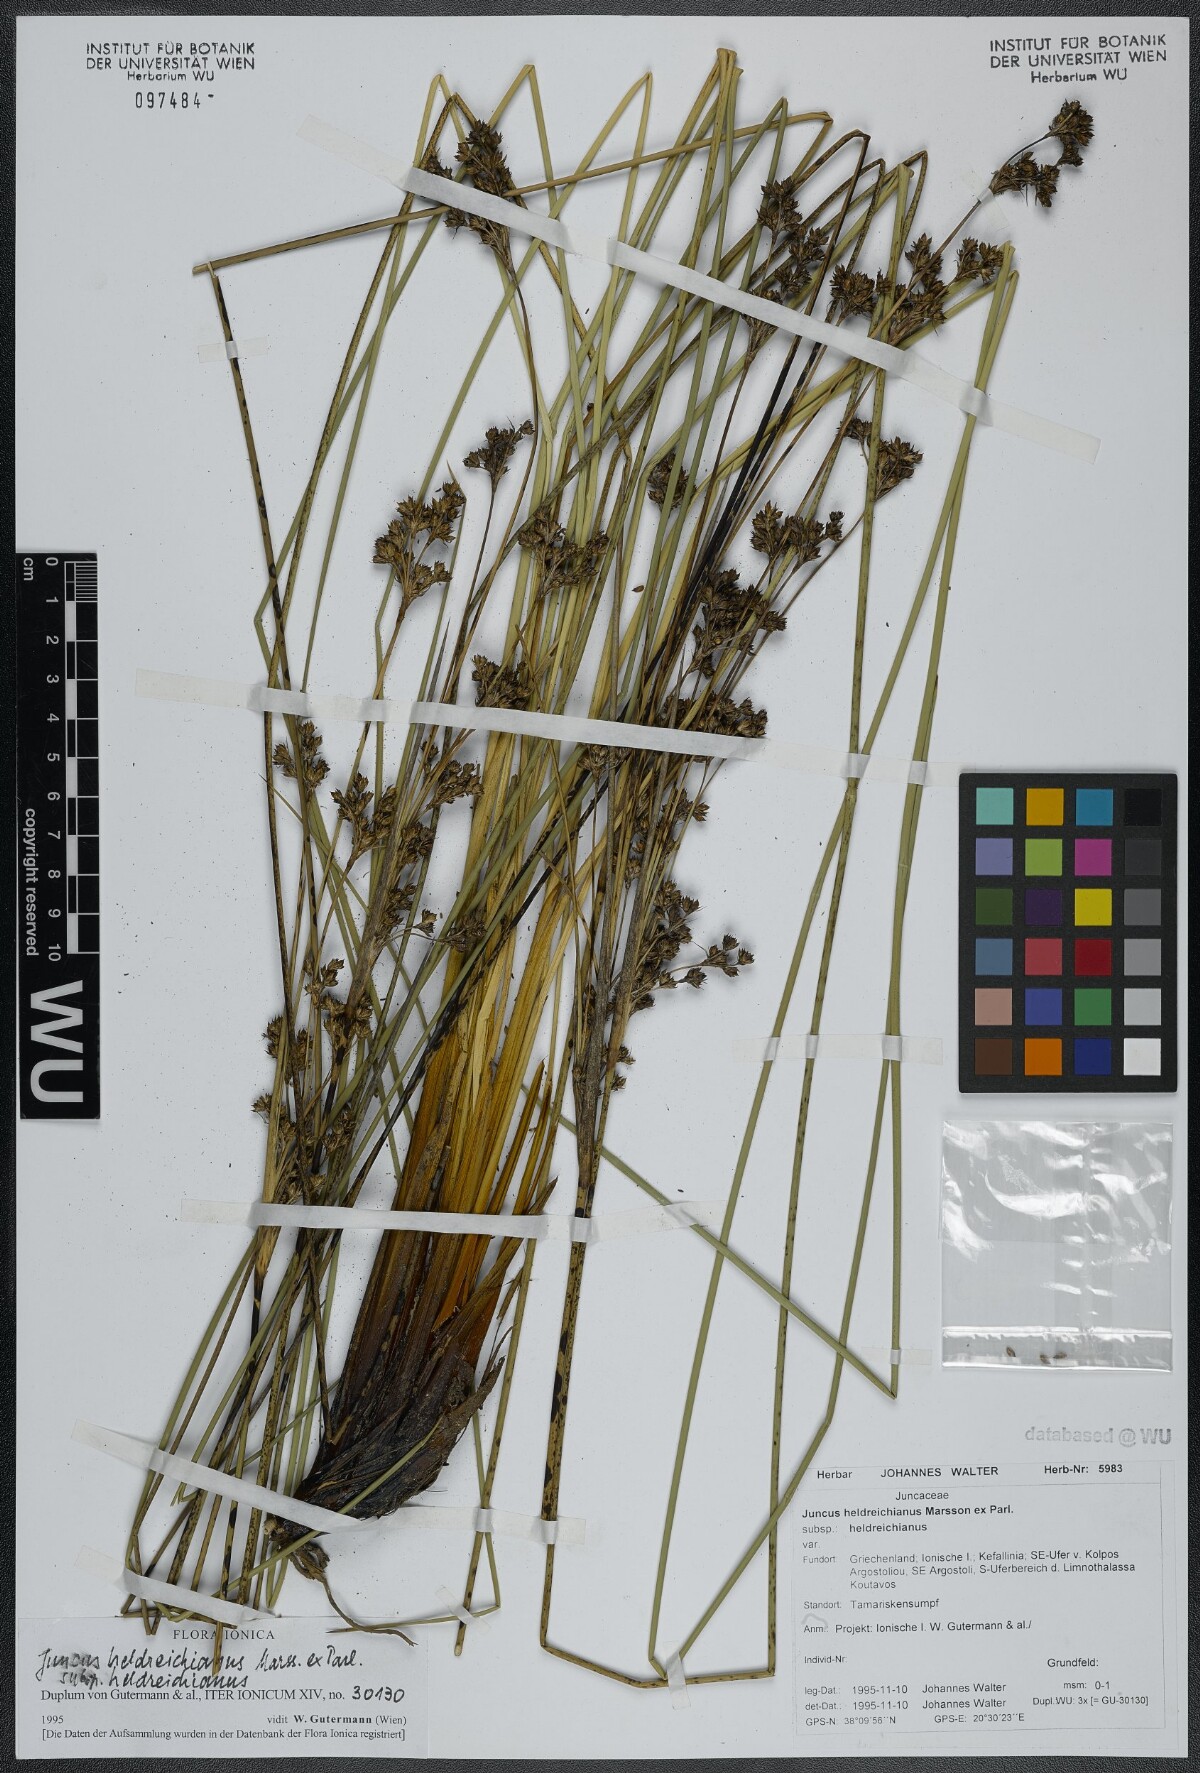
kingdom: Plantae
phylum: Tracheophyta
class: Liliopsida
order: Poales
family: Juncaceae
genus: Juncus
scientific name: Juncus heldreichianus
